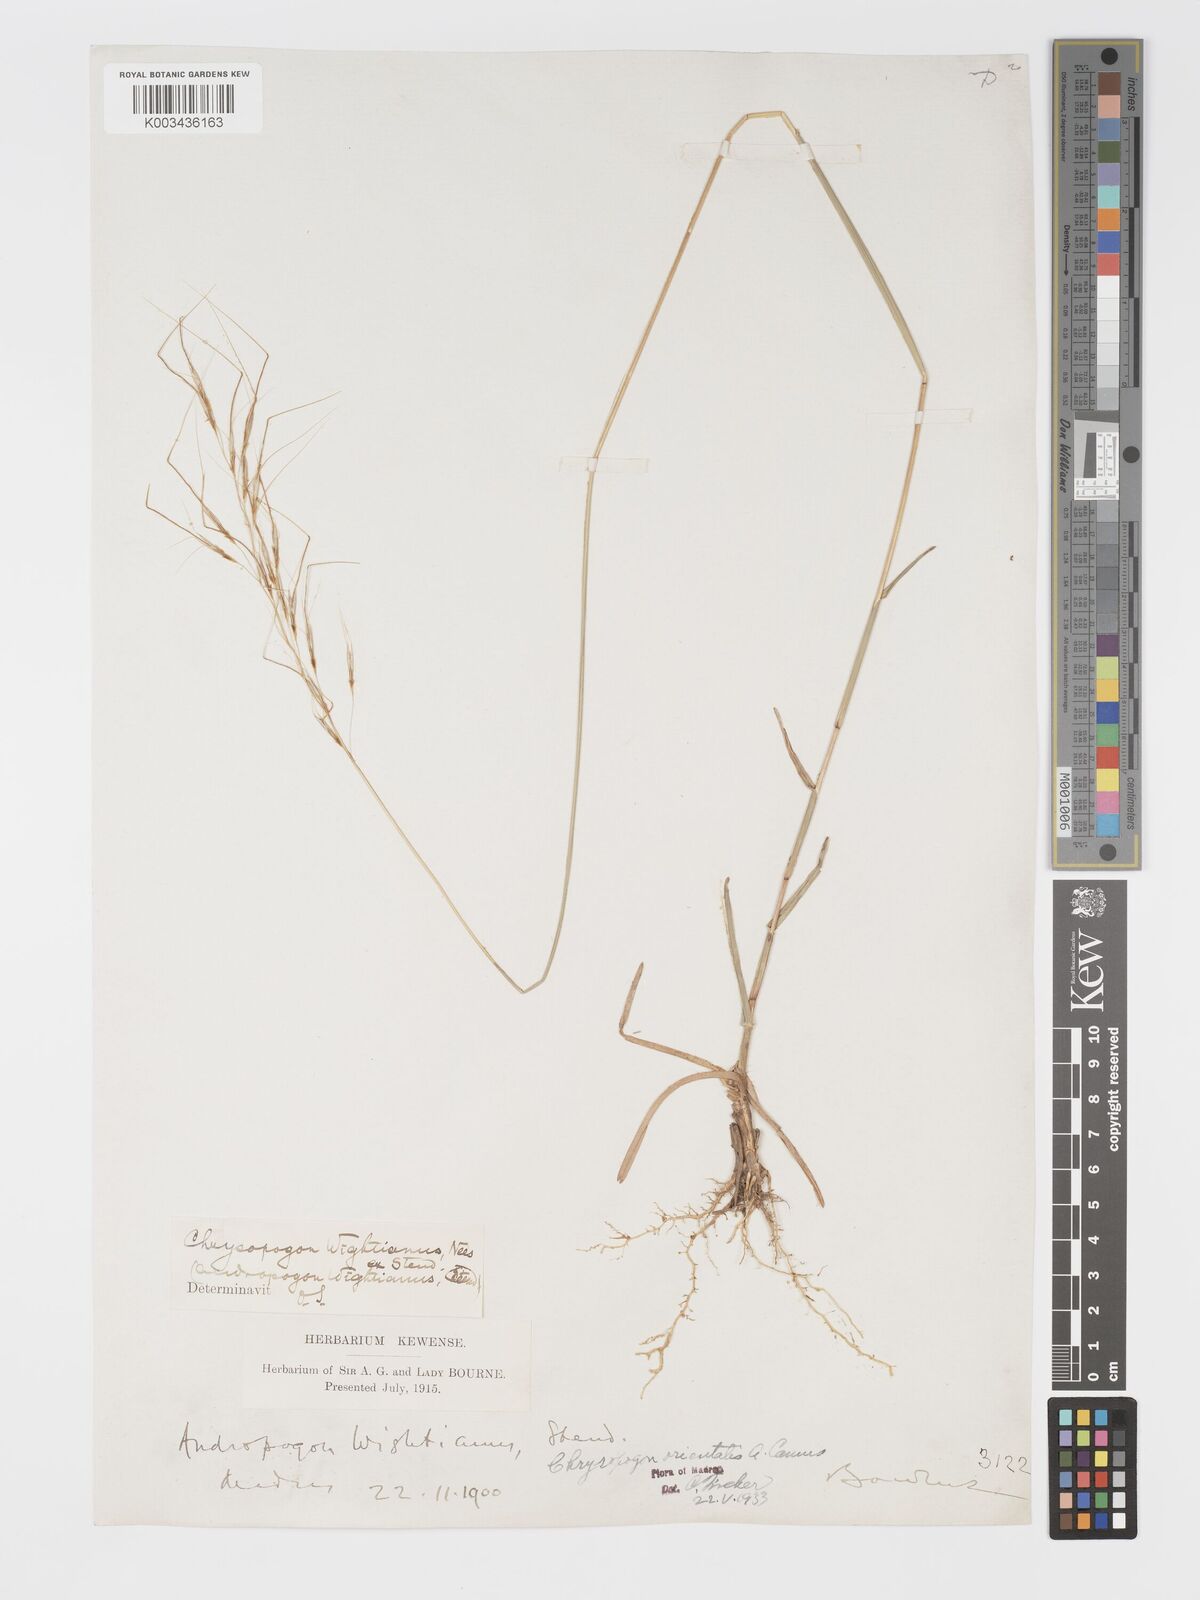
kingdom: Plantae
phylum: Tracheophyta
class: Liliopsida
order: Poales
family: Poaceae
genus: Chrysopogon
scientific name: Chrysopogon orientalis
